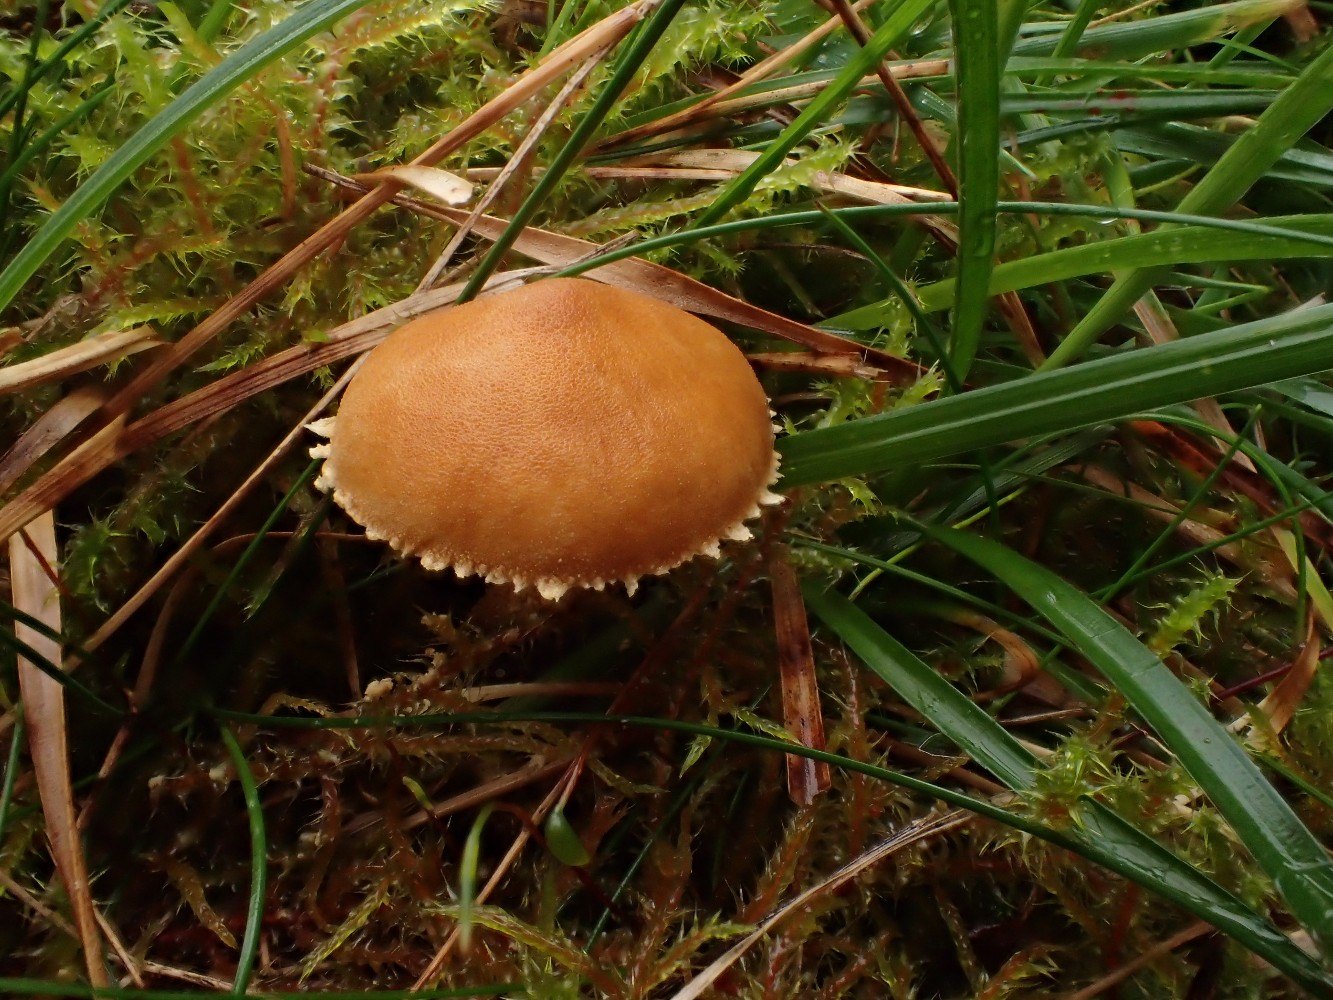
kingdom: Fungi
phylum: Basidiomycota
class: Agaricomycetes
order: Agaricales
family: Tricholomataceae
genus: Cystoderma
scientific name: Cystoderma amianthinum
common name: okkergul grynhat
